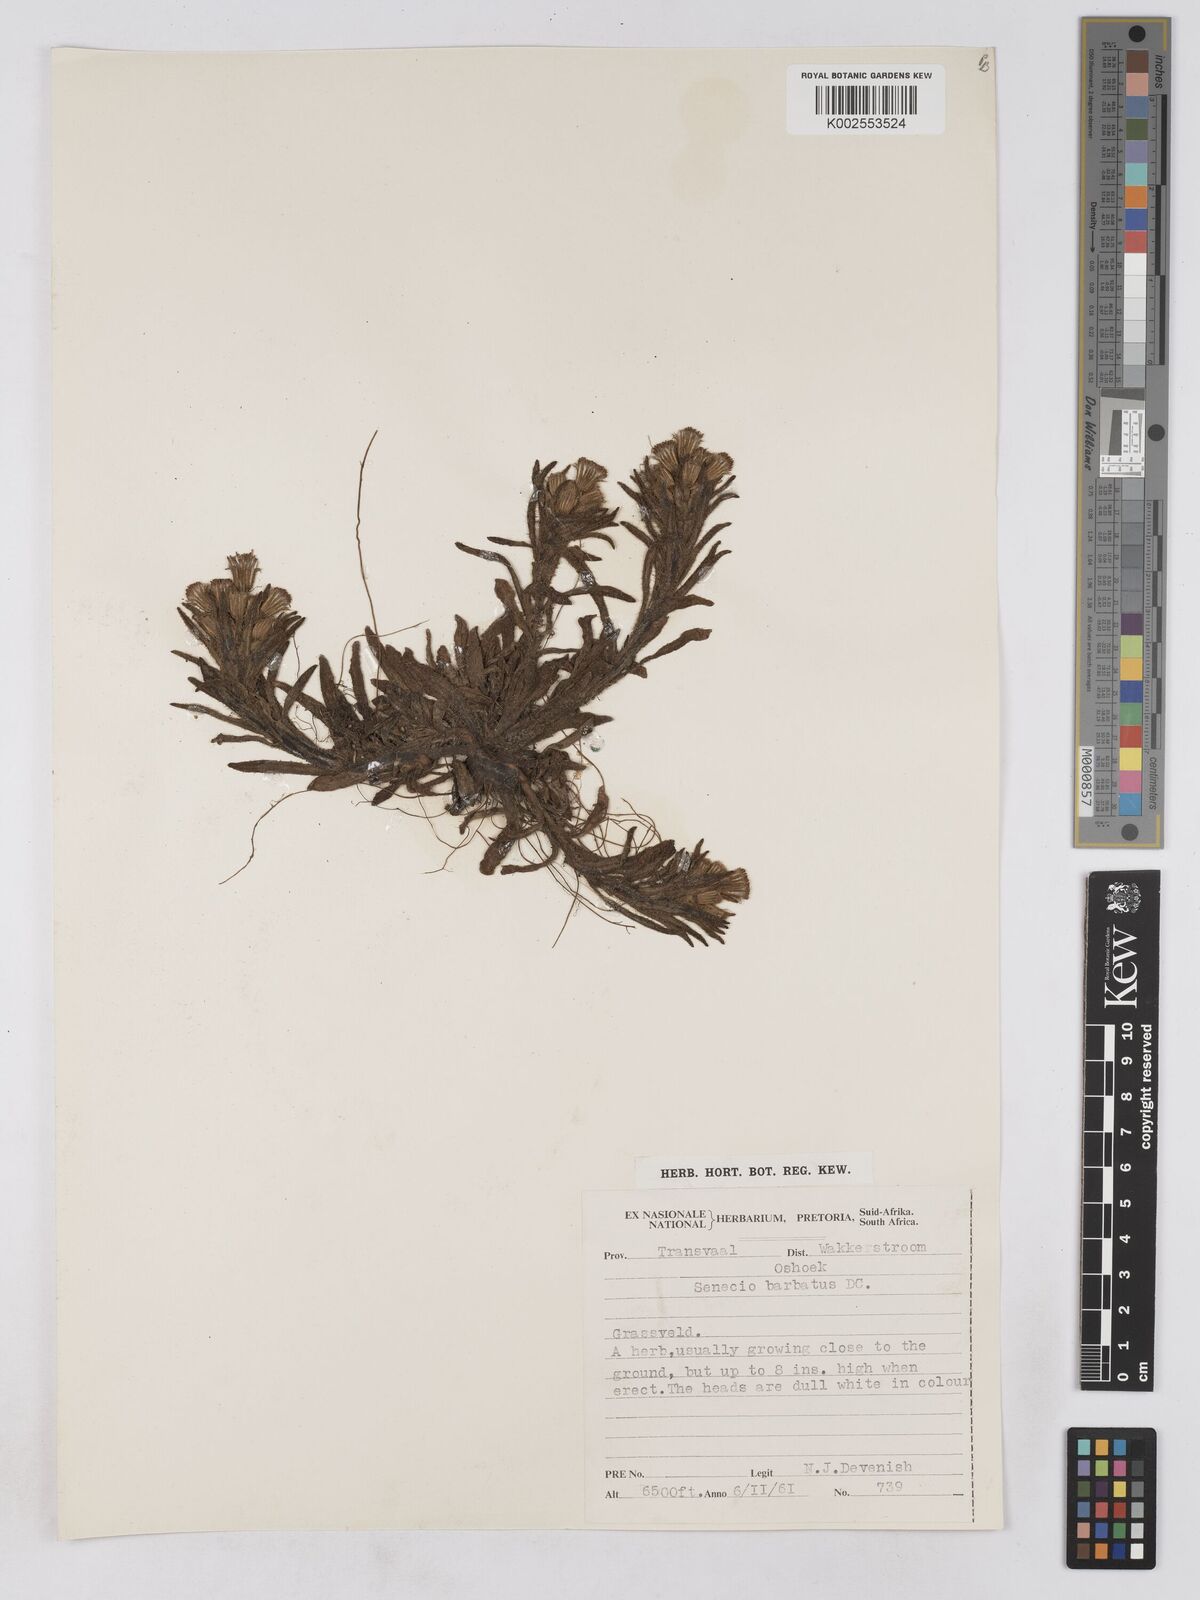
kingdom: Plantae
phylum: Tracheophyta
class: Magnoliopsida
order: Asterales
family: Asteraceae
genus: Senecio
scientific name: Senecio barbatus
